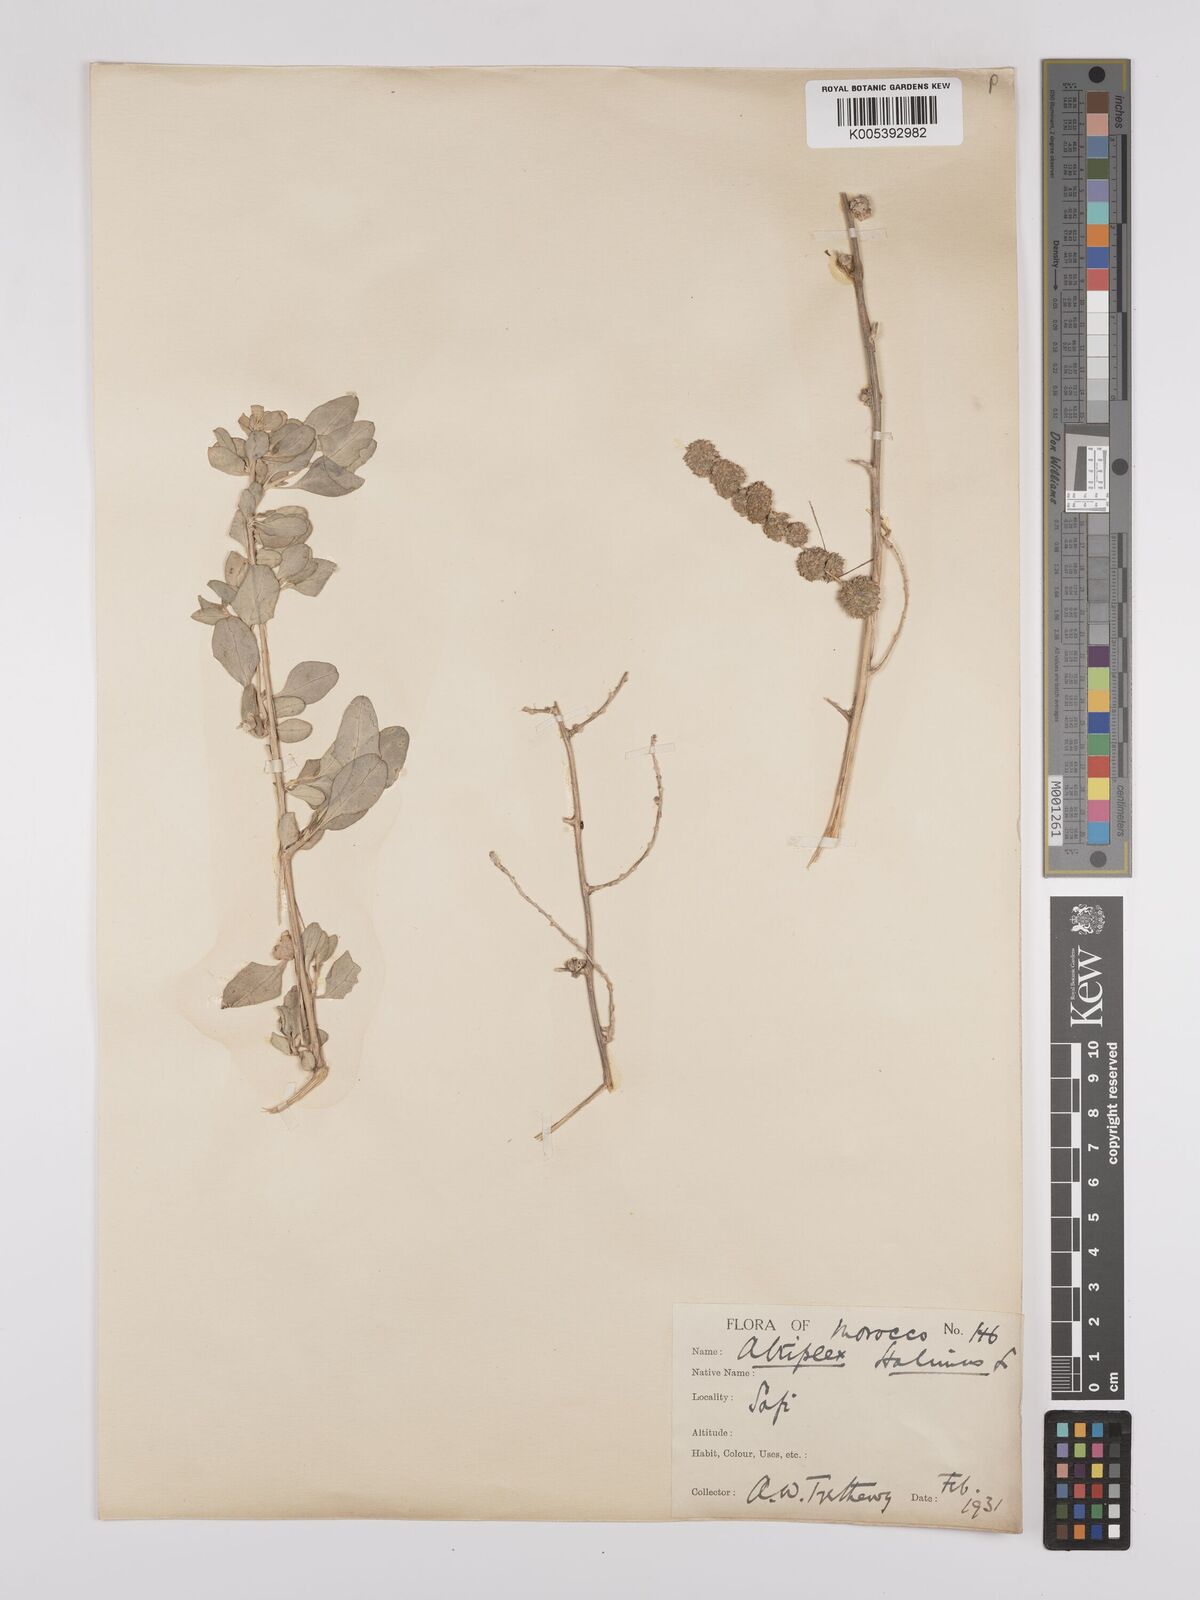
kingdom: Plantae
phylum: Tracheophyta
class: Magnoliopsida
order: Caryophyllales
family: Amaranthaceae
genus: Atriplex
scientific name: Atriplex
